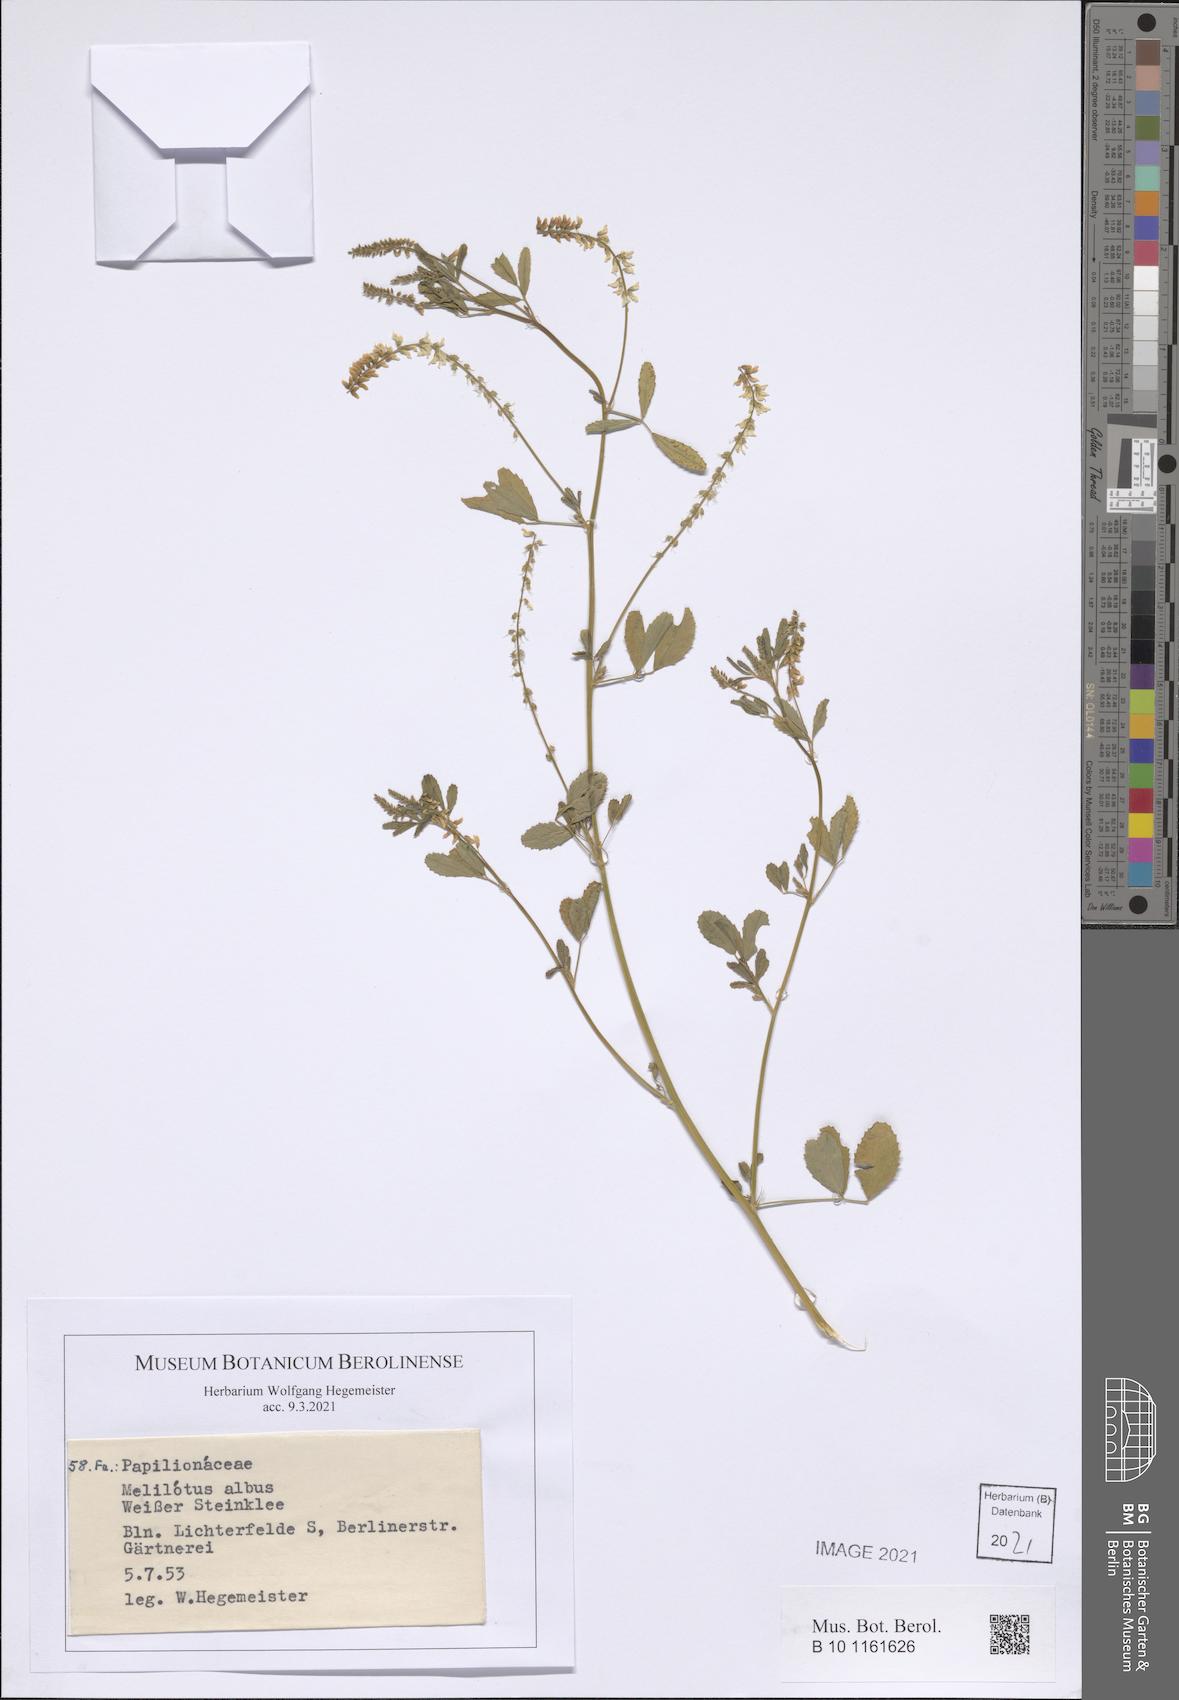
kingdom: Plantae
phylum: Tracheophyta
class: Magnoliopsida
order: Fabales
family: Fabaceae
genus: Melilotus
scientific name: Melilotus albus
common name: White melilot
